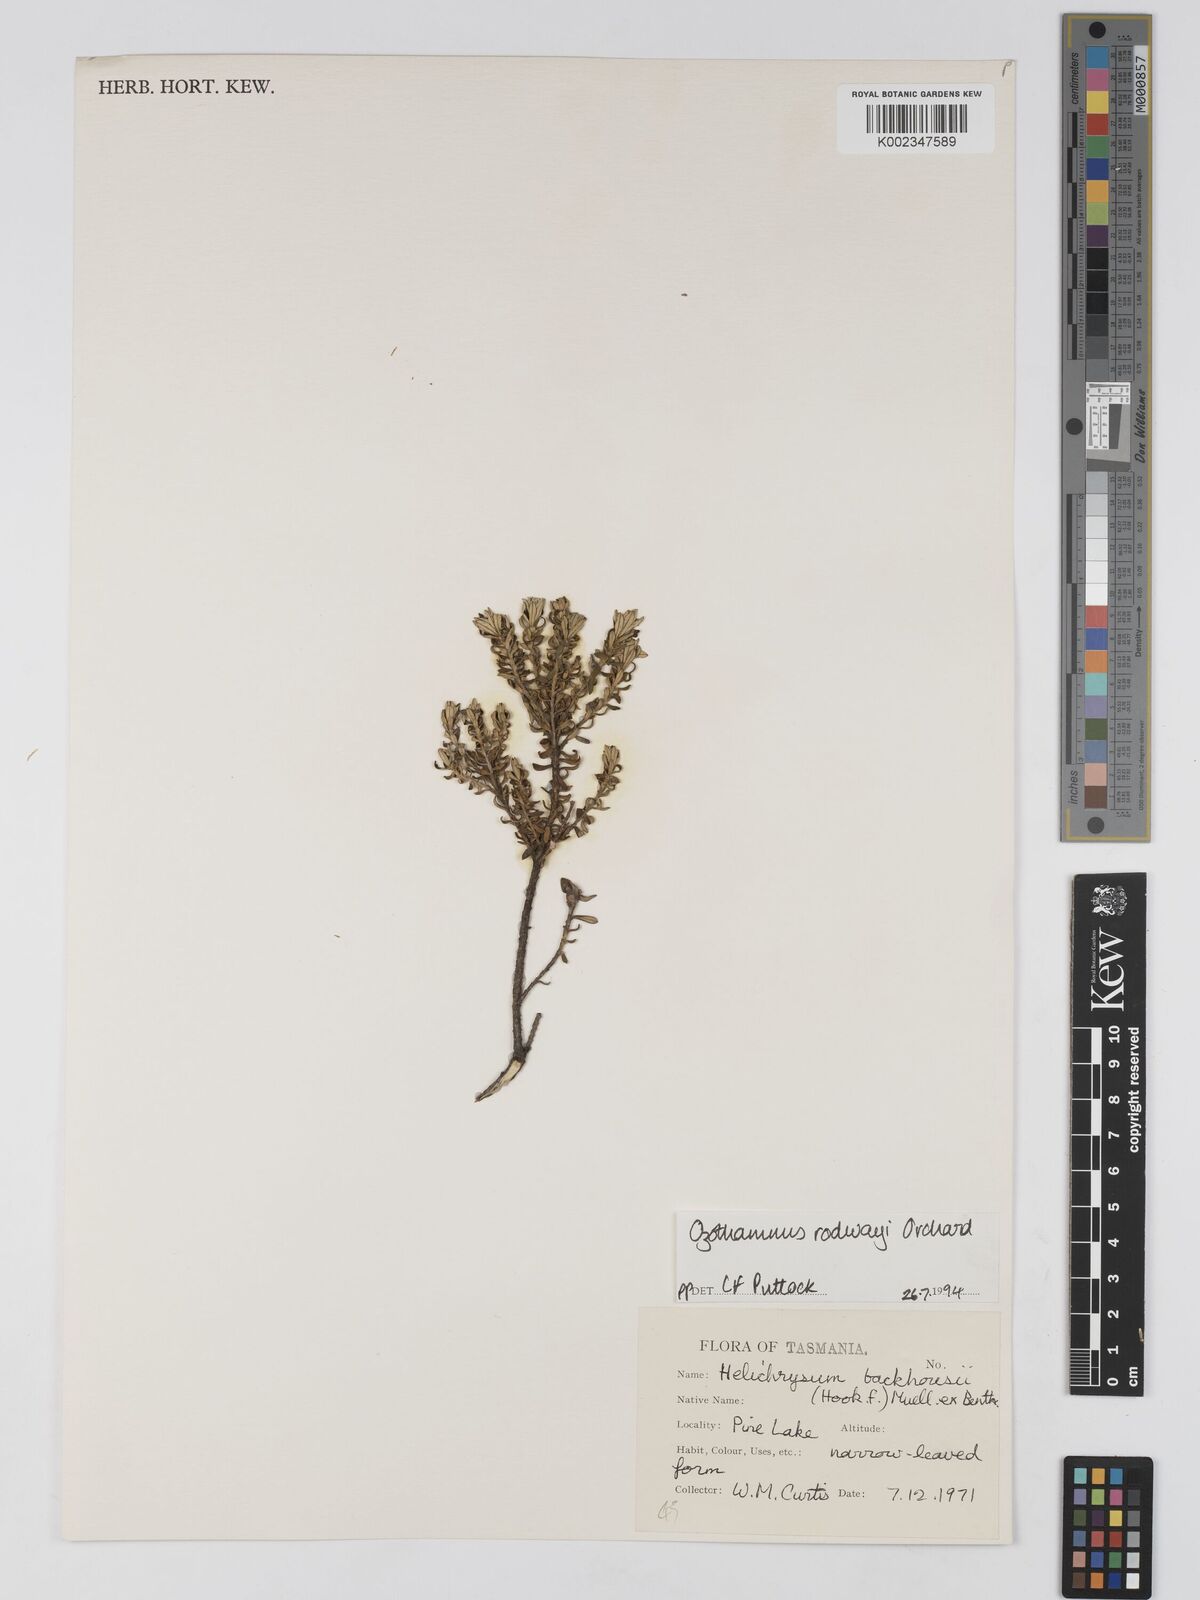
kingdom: Plantae
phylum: Tracheophyta
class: Magnoliopsida
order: Asterales
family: Asteraceae
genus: Ozothamnus
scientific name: Ozothamnus rodwayi
